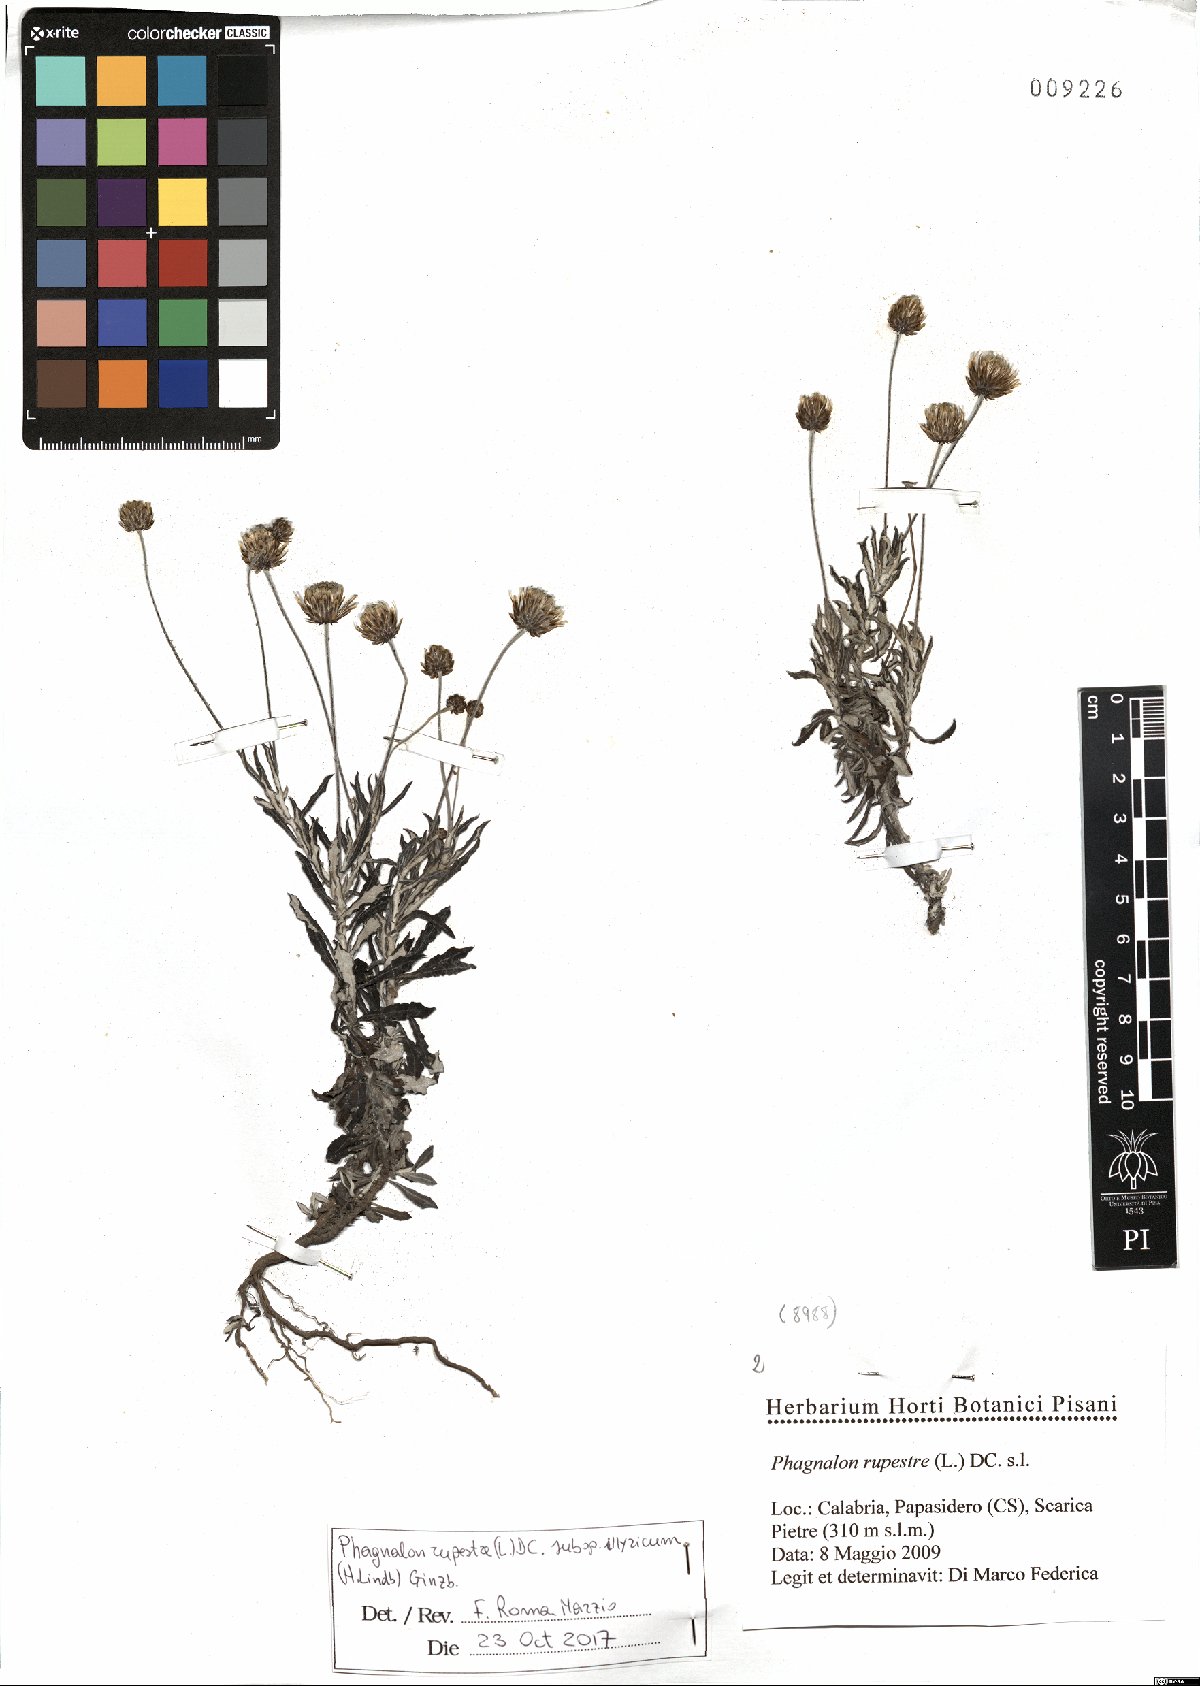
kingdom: Plantae
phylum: Tracheophyta
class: Magnoliopsida
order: Asterales
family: Asteraceae
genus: Phagnalon
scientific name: Phagnalon rupestre
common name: Rock phagnalon
